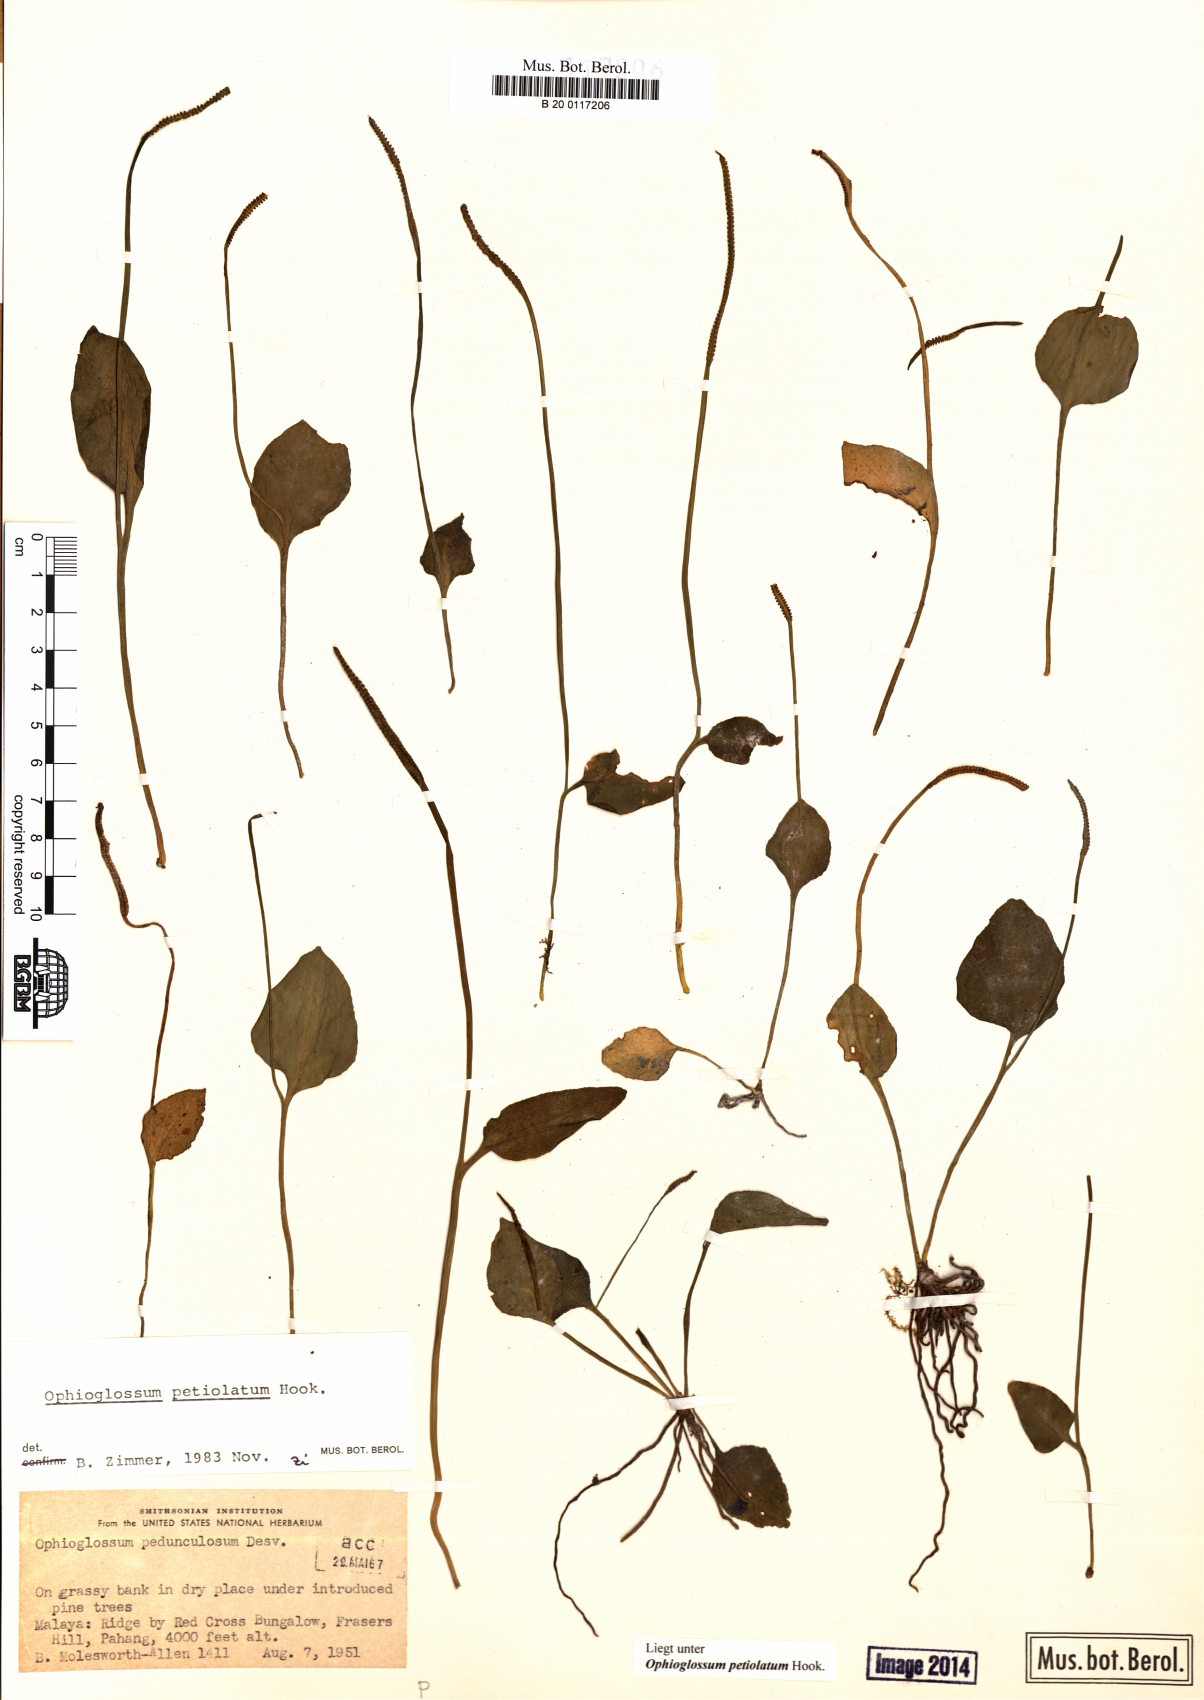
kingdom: Plantae
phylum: Tracheophyta
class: Polypodiopsida
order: Ophioglossales
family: Ophioglossaceae
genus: Ophioglossum
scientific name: Ophioglossum petiolatum
